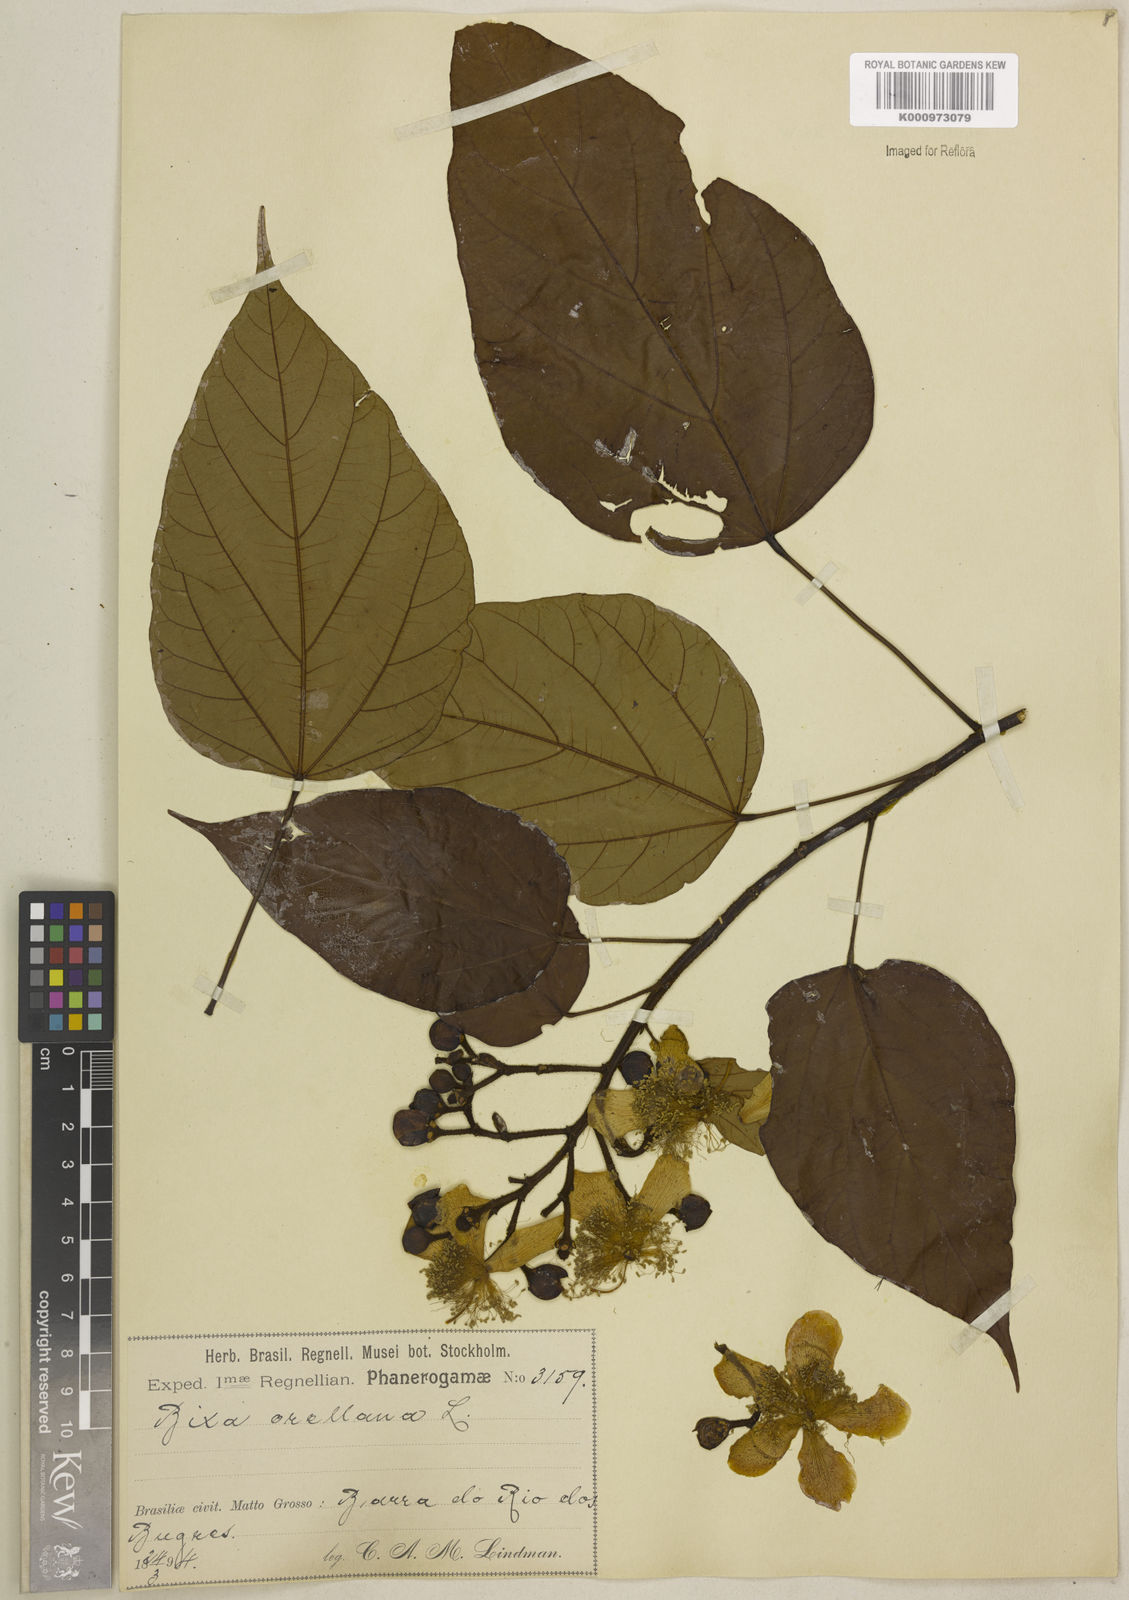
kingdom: Plantae
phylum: Tracheophyta
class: Magnoliopsida
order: Malvales
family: Bixaceae
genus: Bixa
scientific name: Bixa orellana
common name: Lipsticktree
